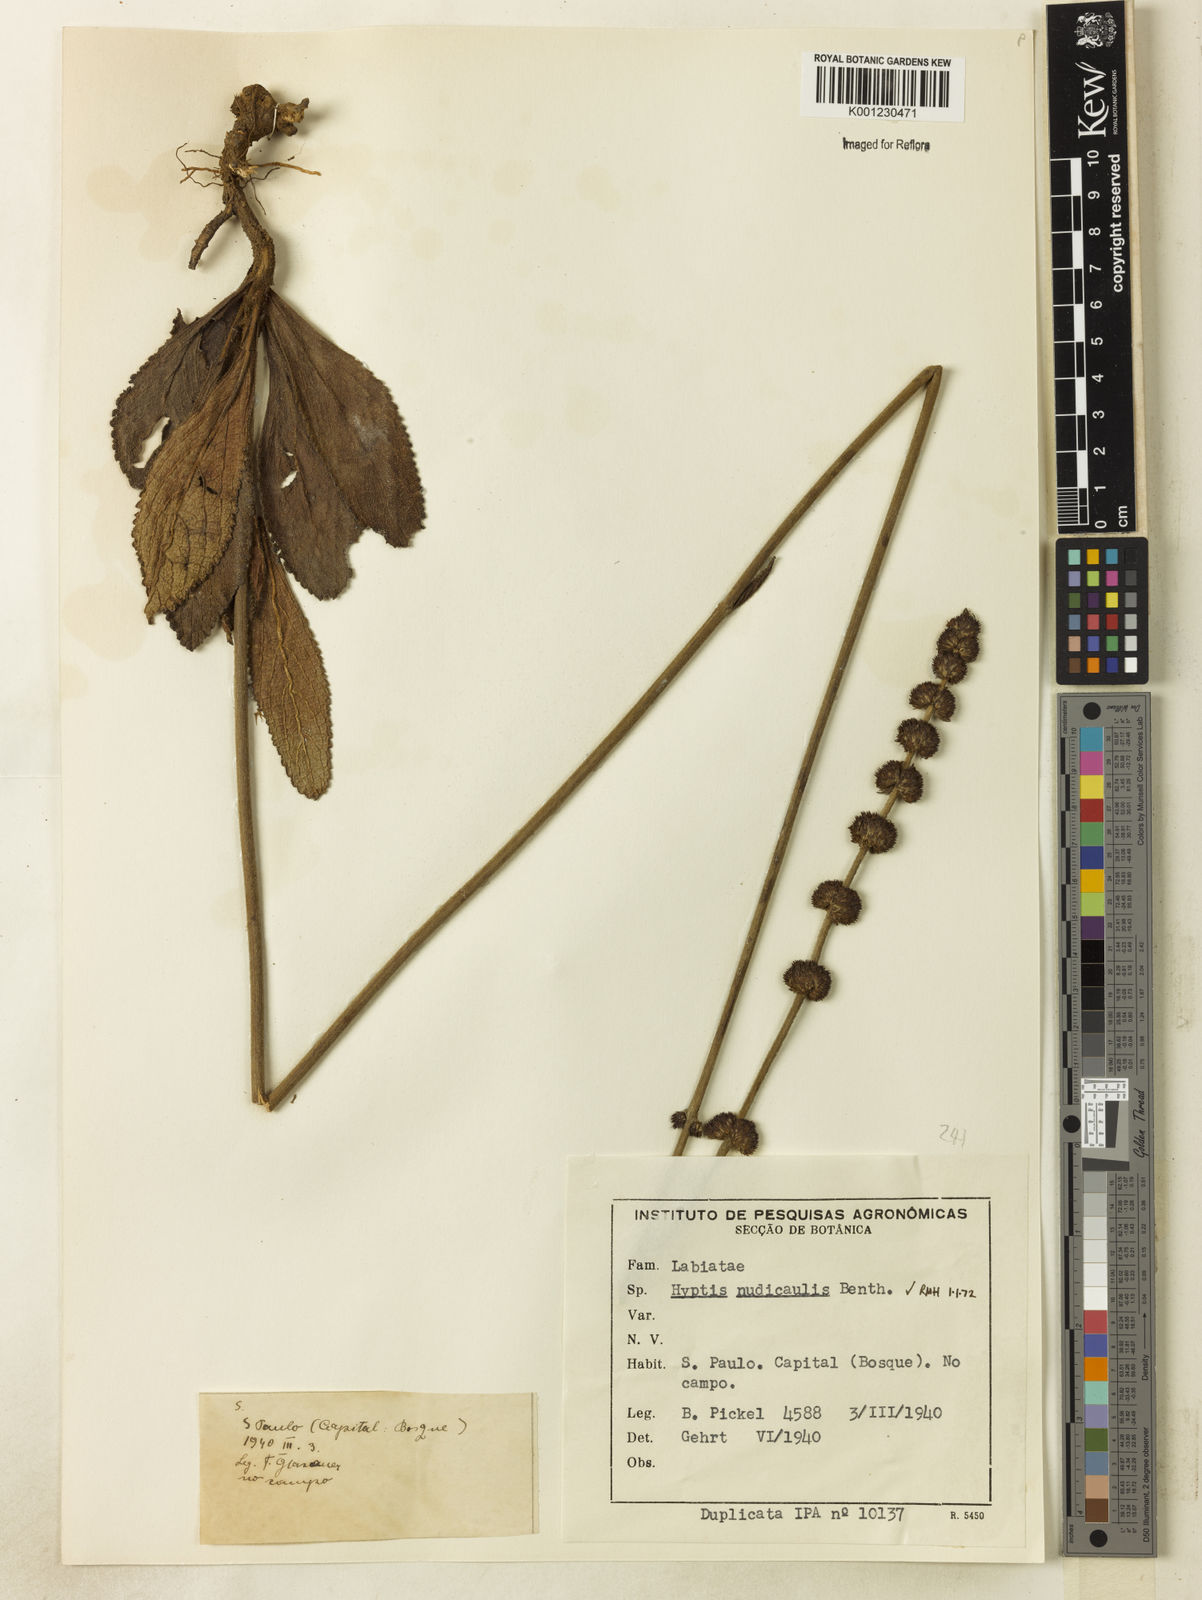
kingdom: Plantae
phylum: Tracheophyta
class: Magnoliopsida
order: Lamiales
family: Lamiaceae
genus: Hyptis
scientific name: Hyptis nudicaulis
